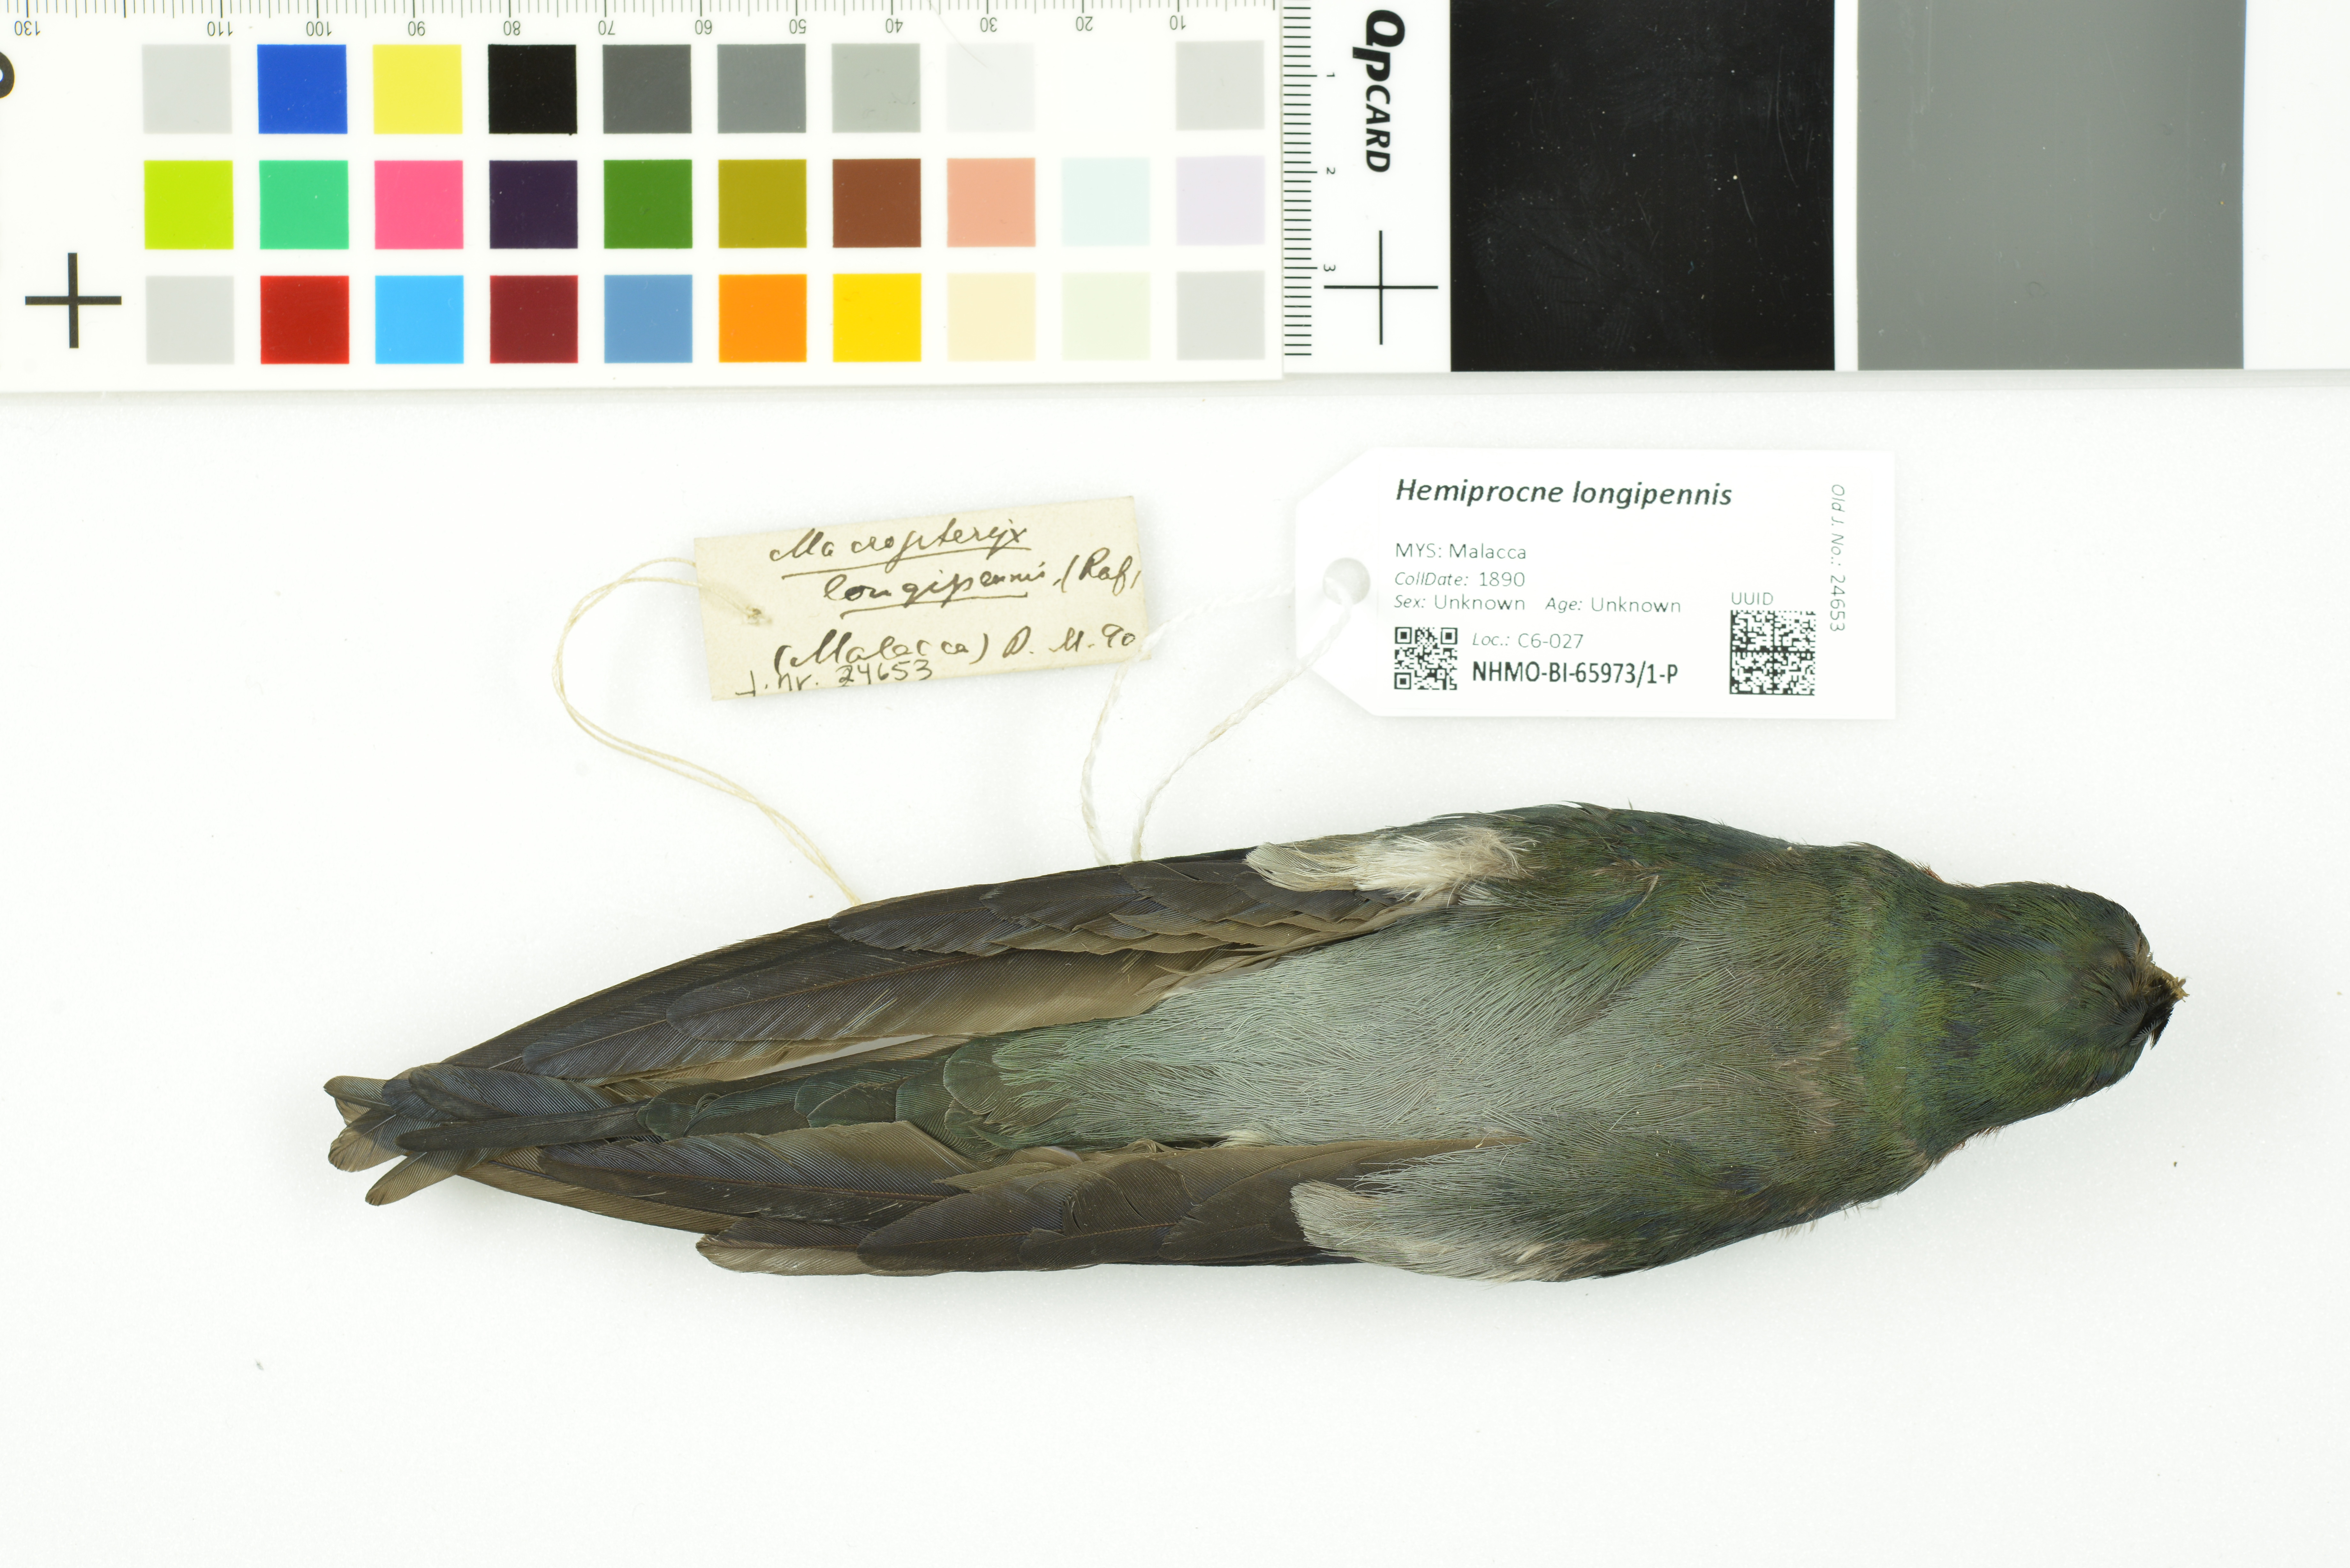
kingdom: Animalia
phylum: Chordata
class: Aves
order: Apodiformes
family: Hemiprocnidae
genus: Hemiprocne
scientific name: Hemiprocne longipennis
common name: Grey-rumped treeswift
